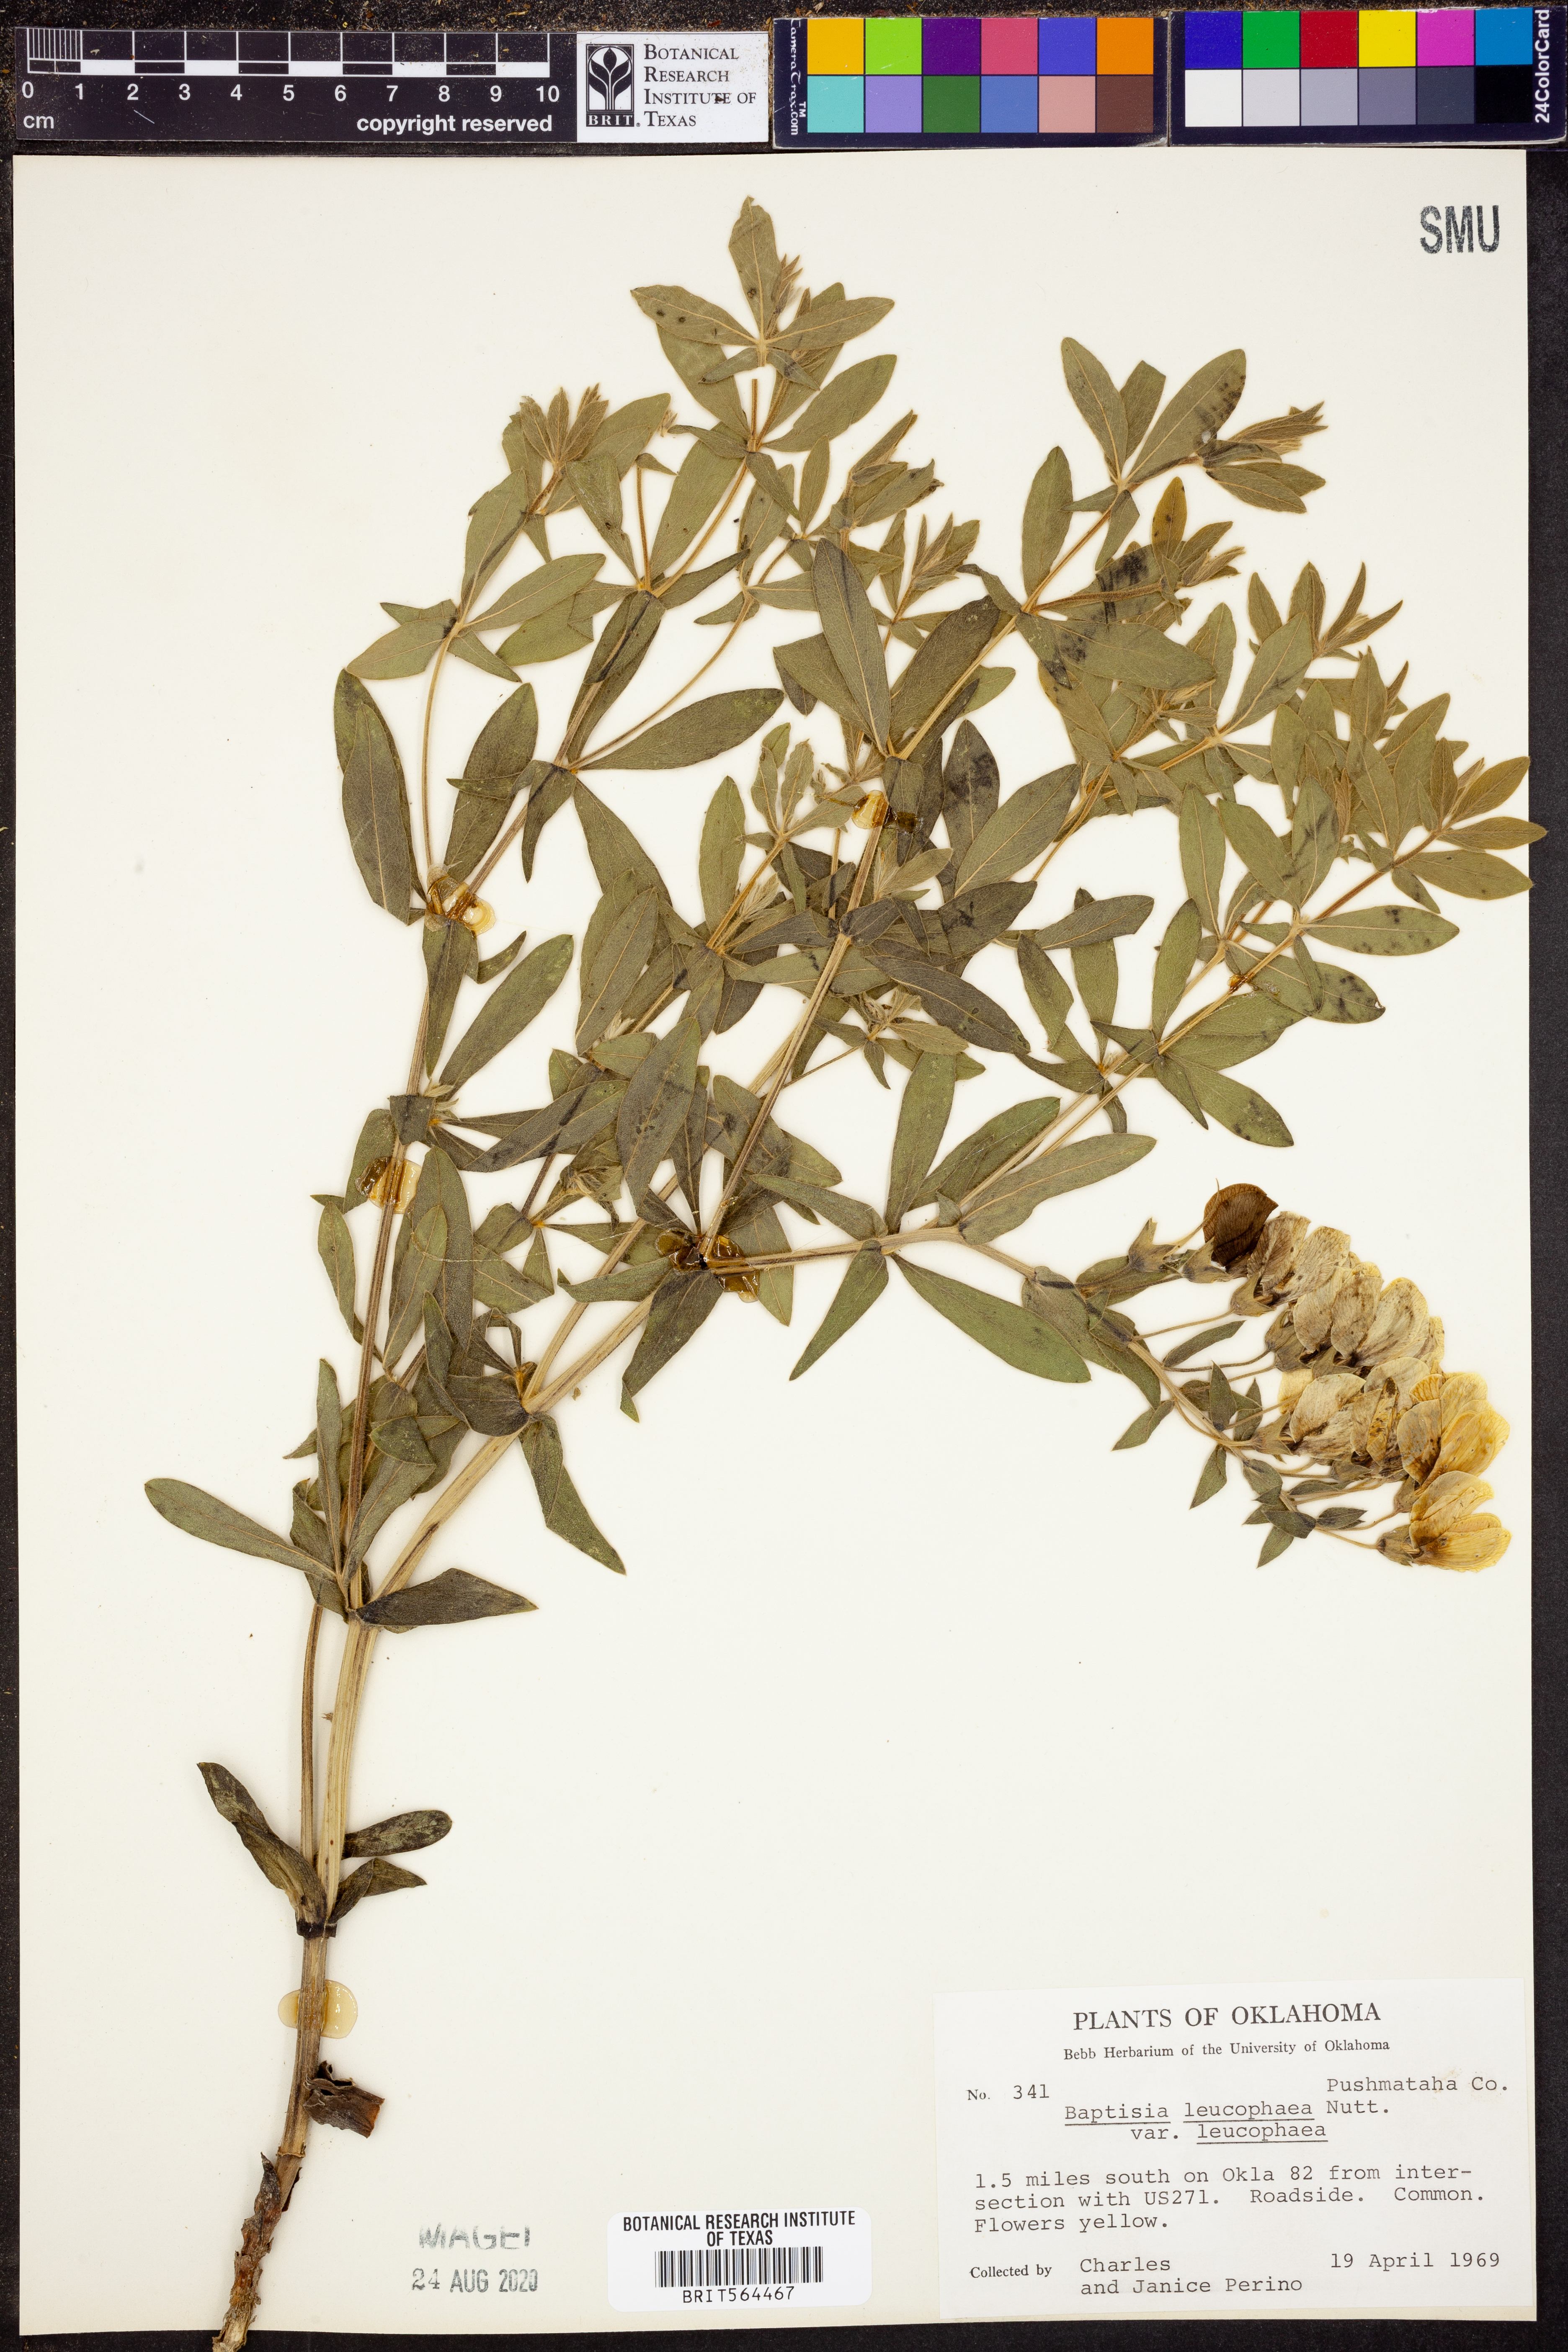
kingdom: Plantae
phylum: Tracheophyta
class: Magnoliopsida
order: Fabales
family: Fabaceae
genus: Baptisia
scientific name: Baptisia bracteata
